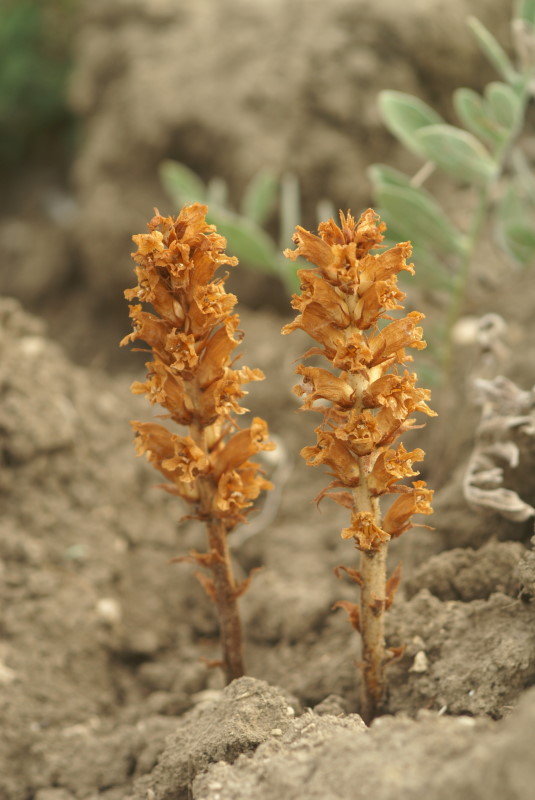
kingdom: Plantae
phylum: Tracheophyta
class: Magnoliopsida
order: Lamiales
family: Scrophulariaceae
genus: Orabanche
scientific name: Orabanche
